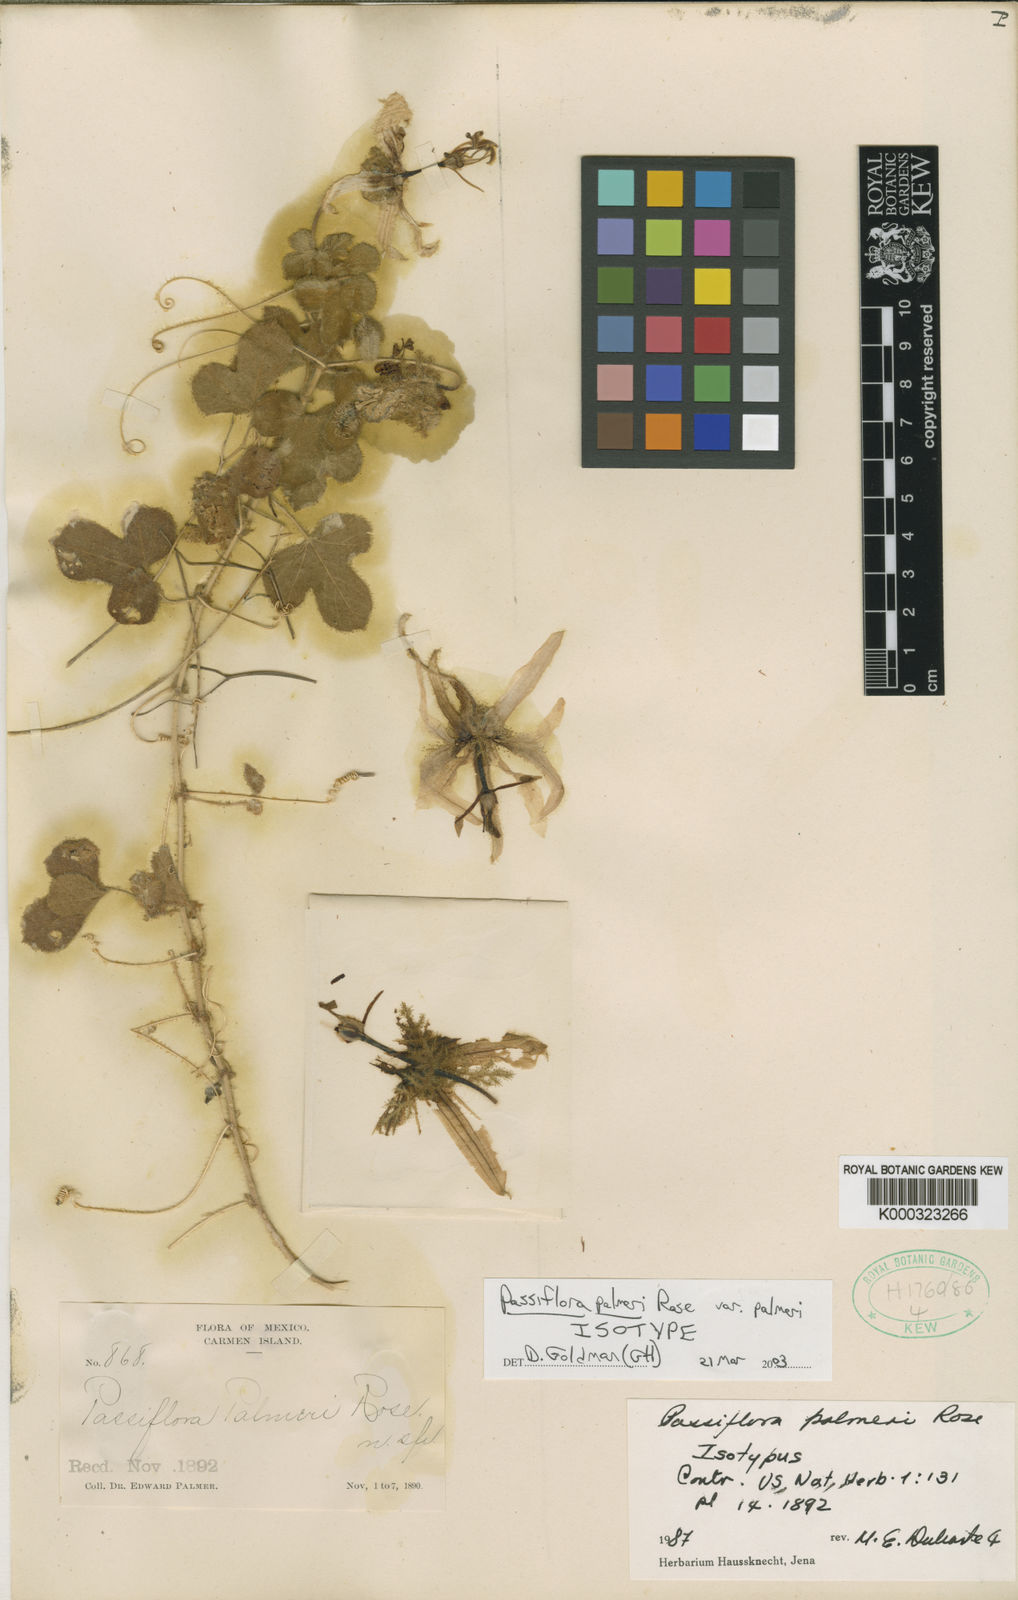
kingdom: Plantae
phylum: Tracheophyta
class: Magnoliopsida
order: Malpighiales
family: Passifloraceae
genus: Passiflora
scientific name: Passiflora palmeri
